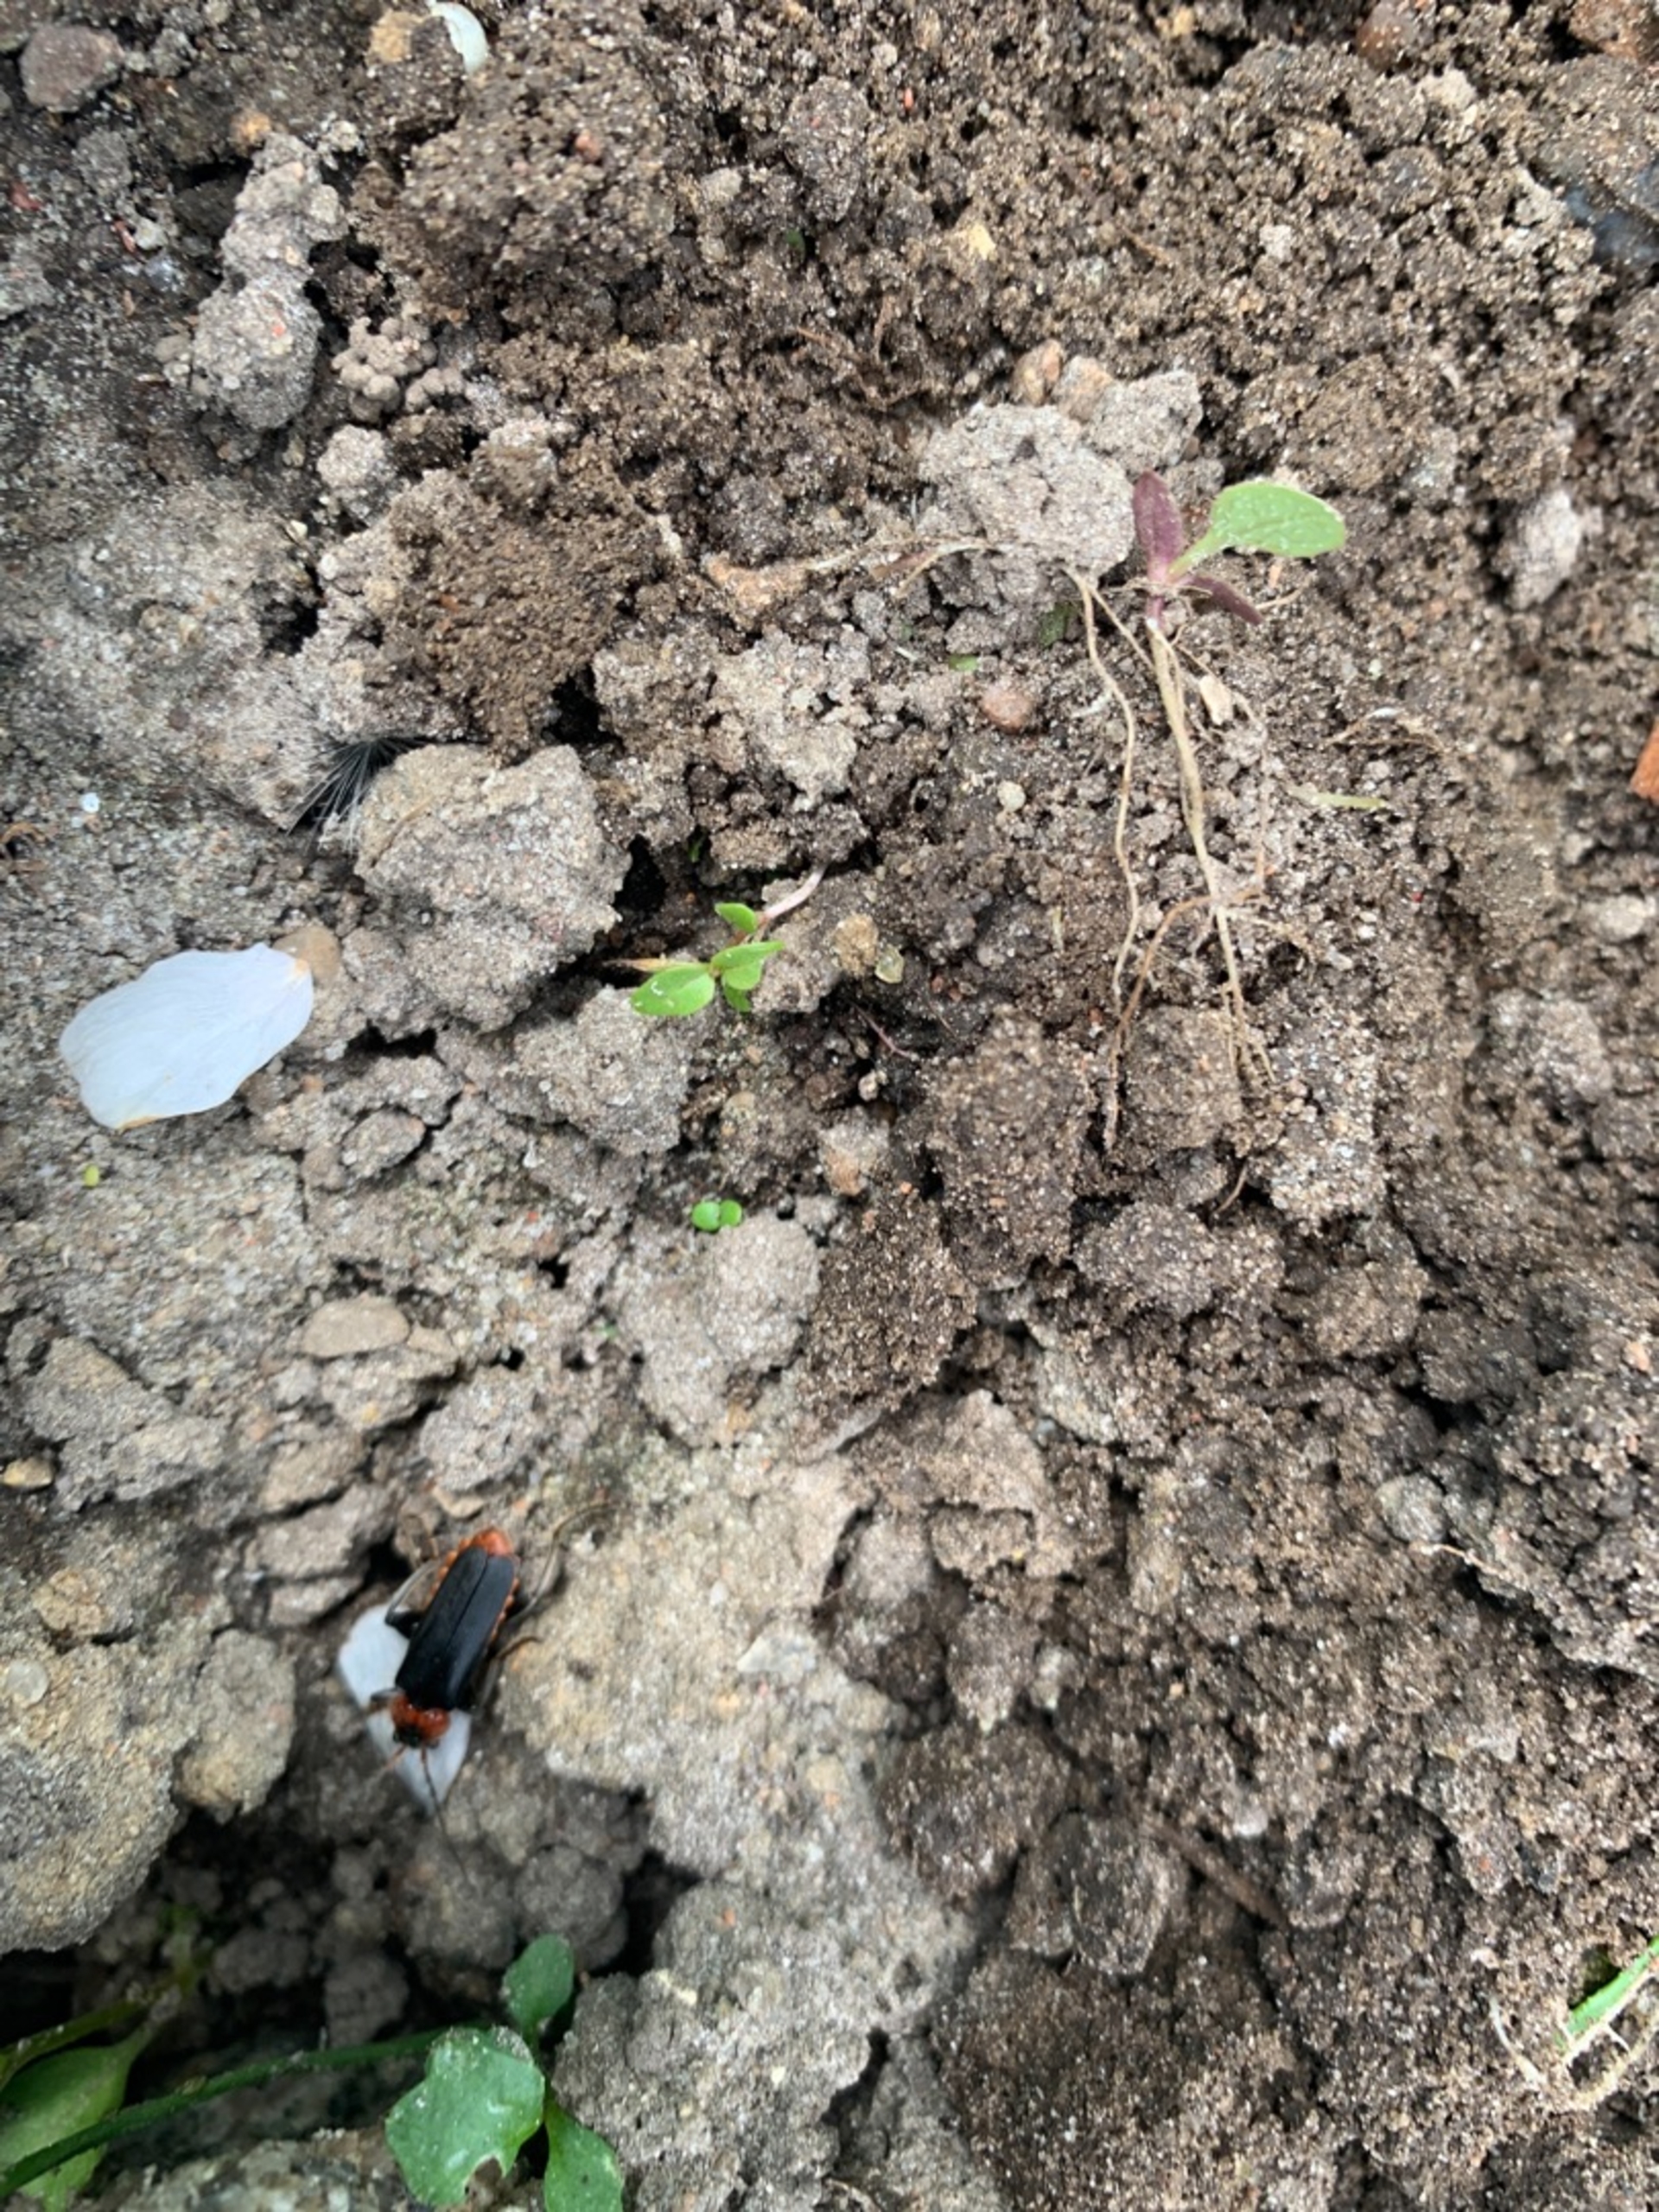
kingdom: Animalia
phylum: Arthropoda
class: Insecta
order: Coleoptera
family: Cantharidae
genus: Cantharis
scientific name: Cantharis fusca
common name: Stor blødvinge
